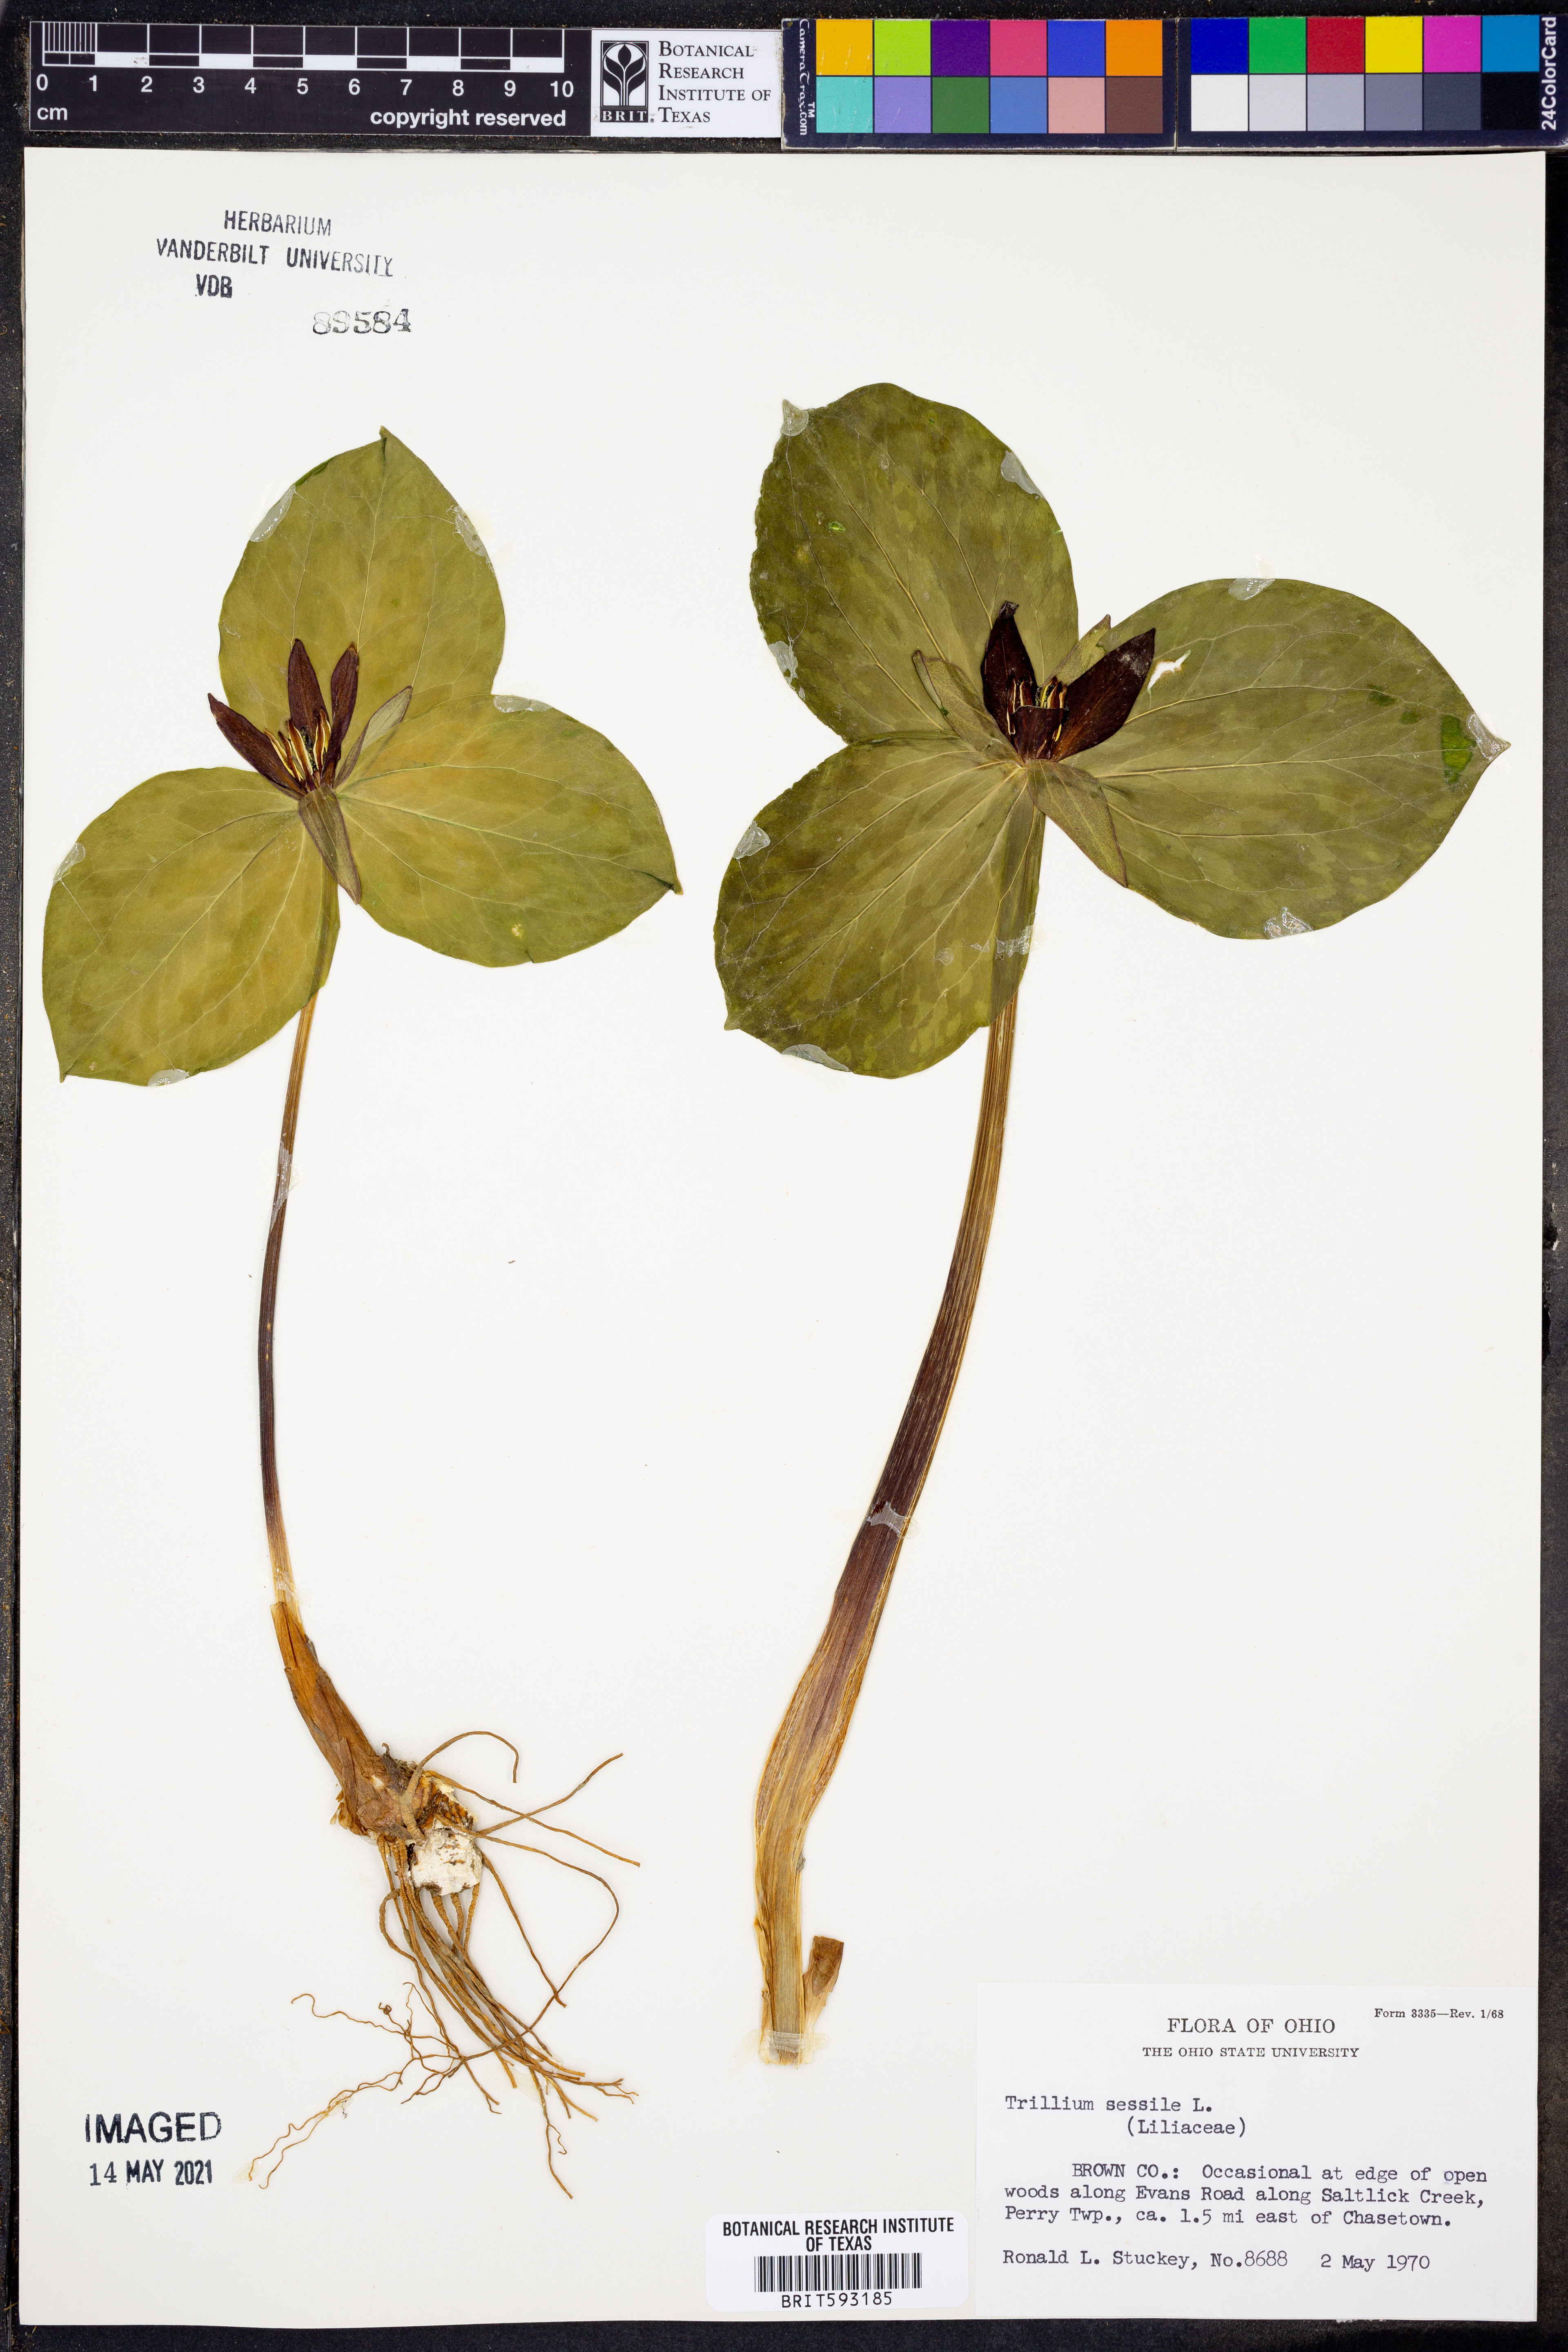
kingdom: Plantae
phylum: Tracheophyta
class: Liliopsida
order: Liliales
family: Melanthiaceae
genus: Trillium
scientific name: Trillium sessile
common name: Sessile trillium
